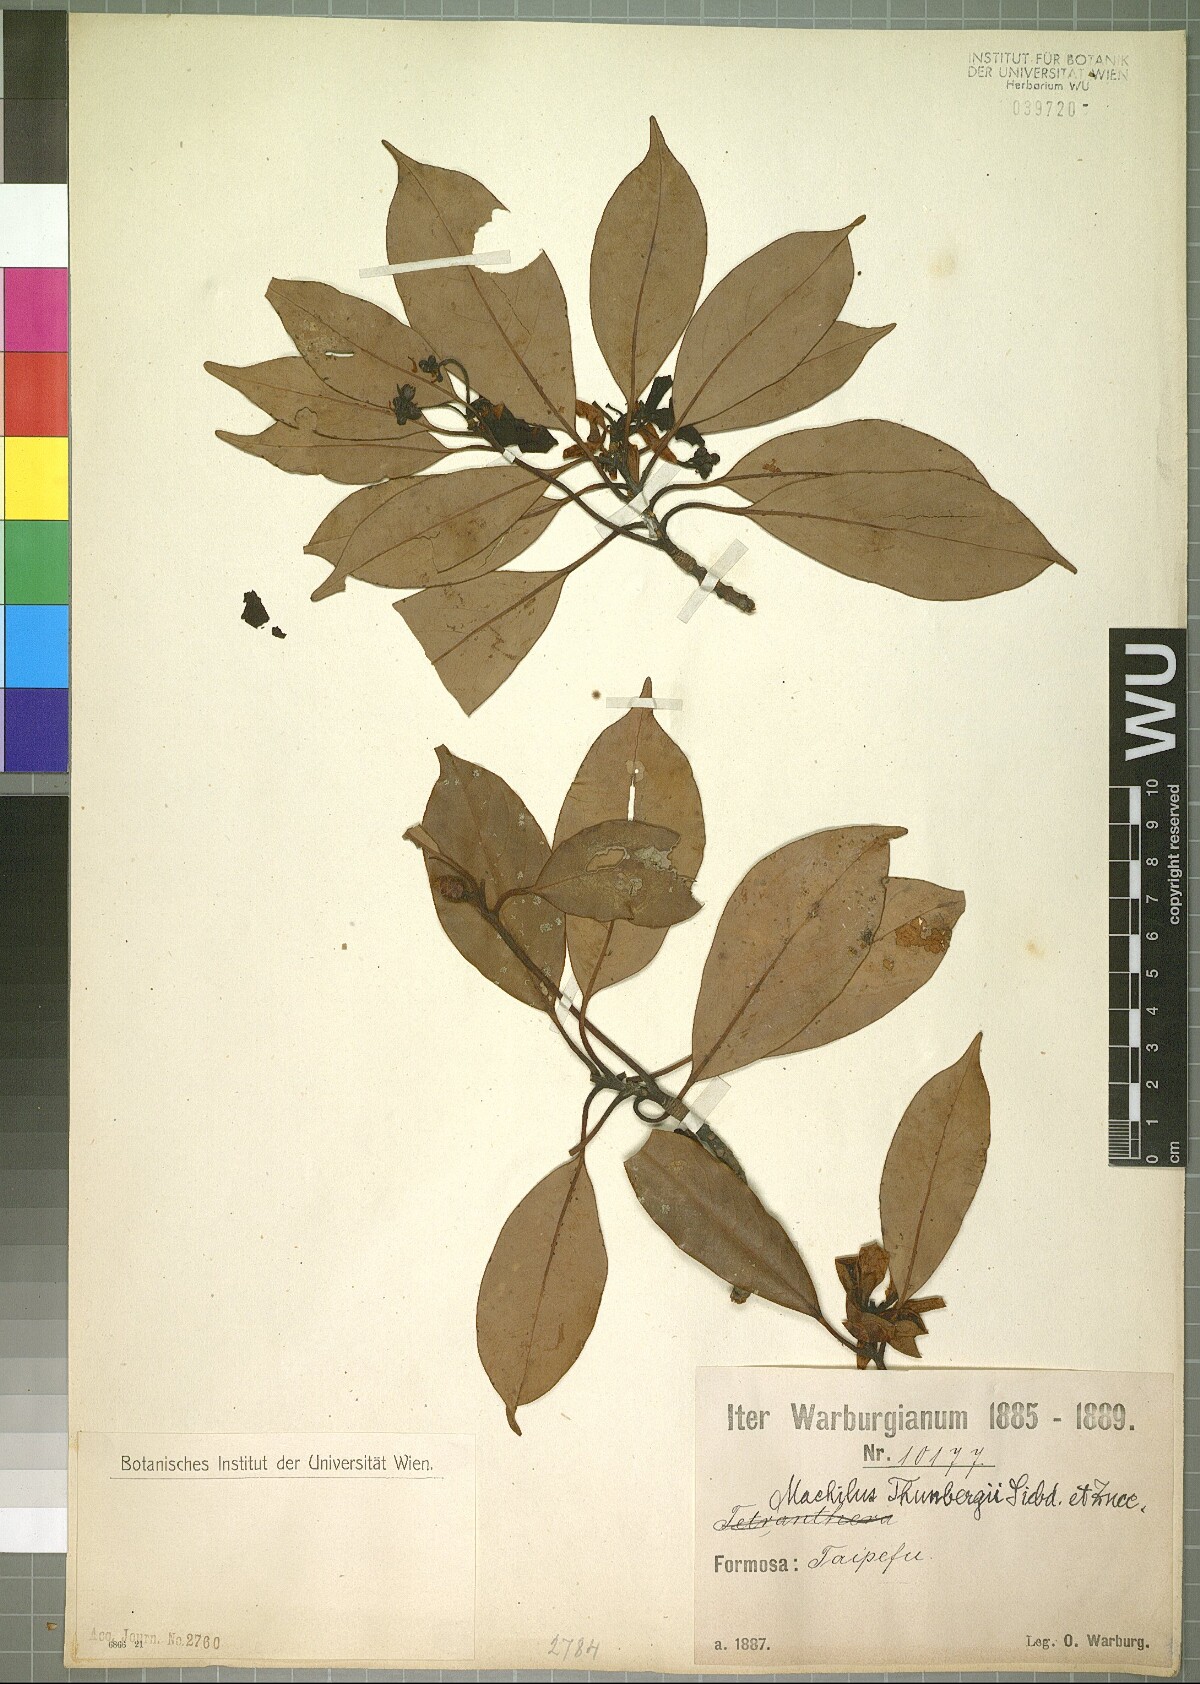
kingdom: Plantae
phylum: Tracheophyta
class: Magnoliopsida
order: Laurales
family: Lauraceae
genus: Machilus
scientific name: Machilus thunbergii
